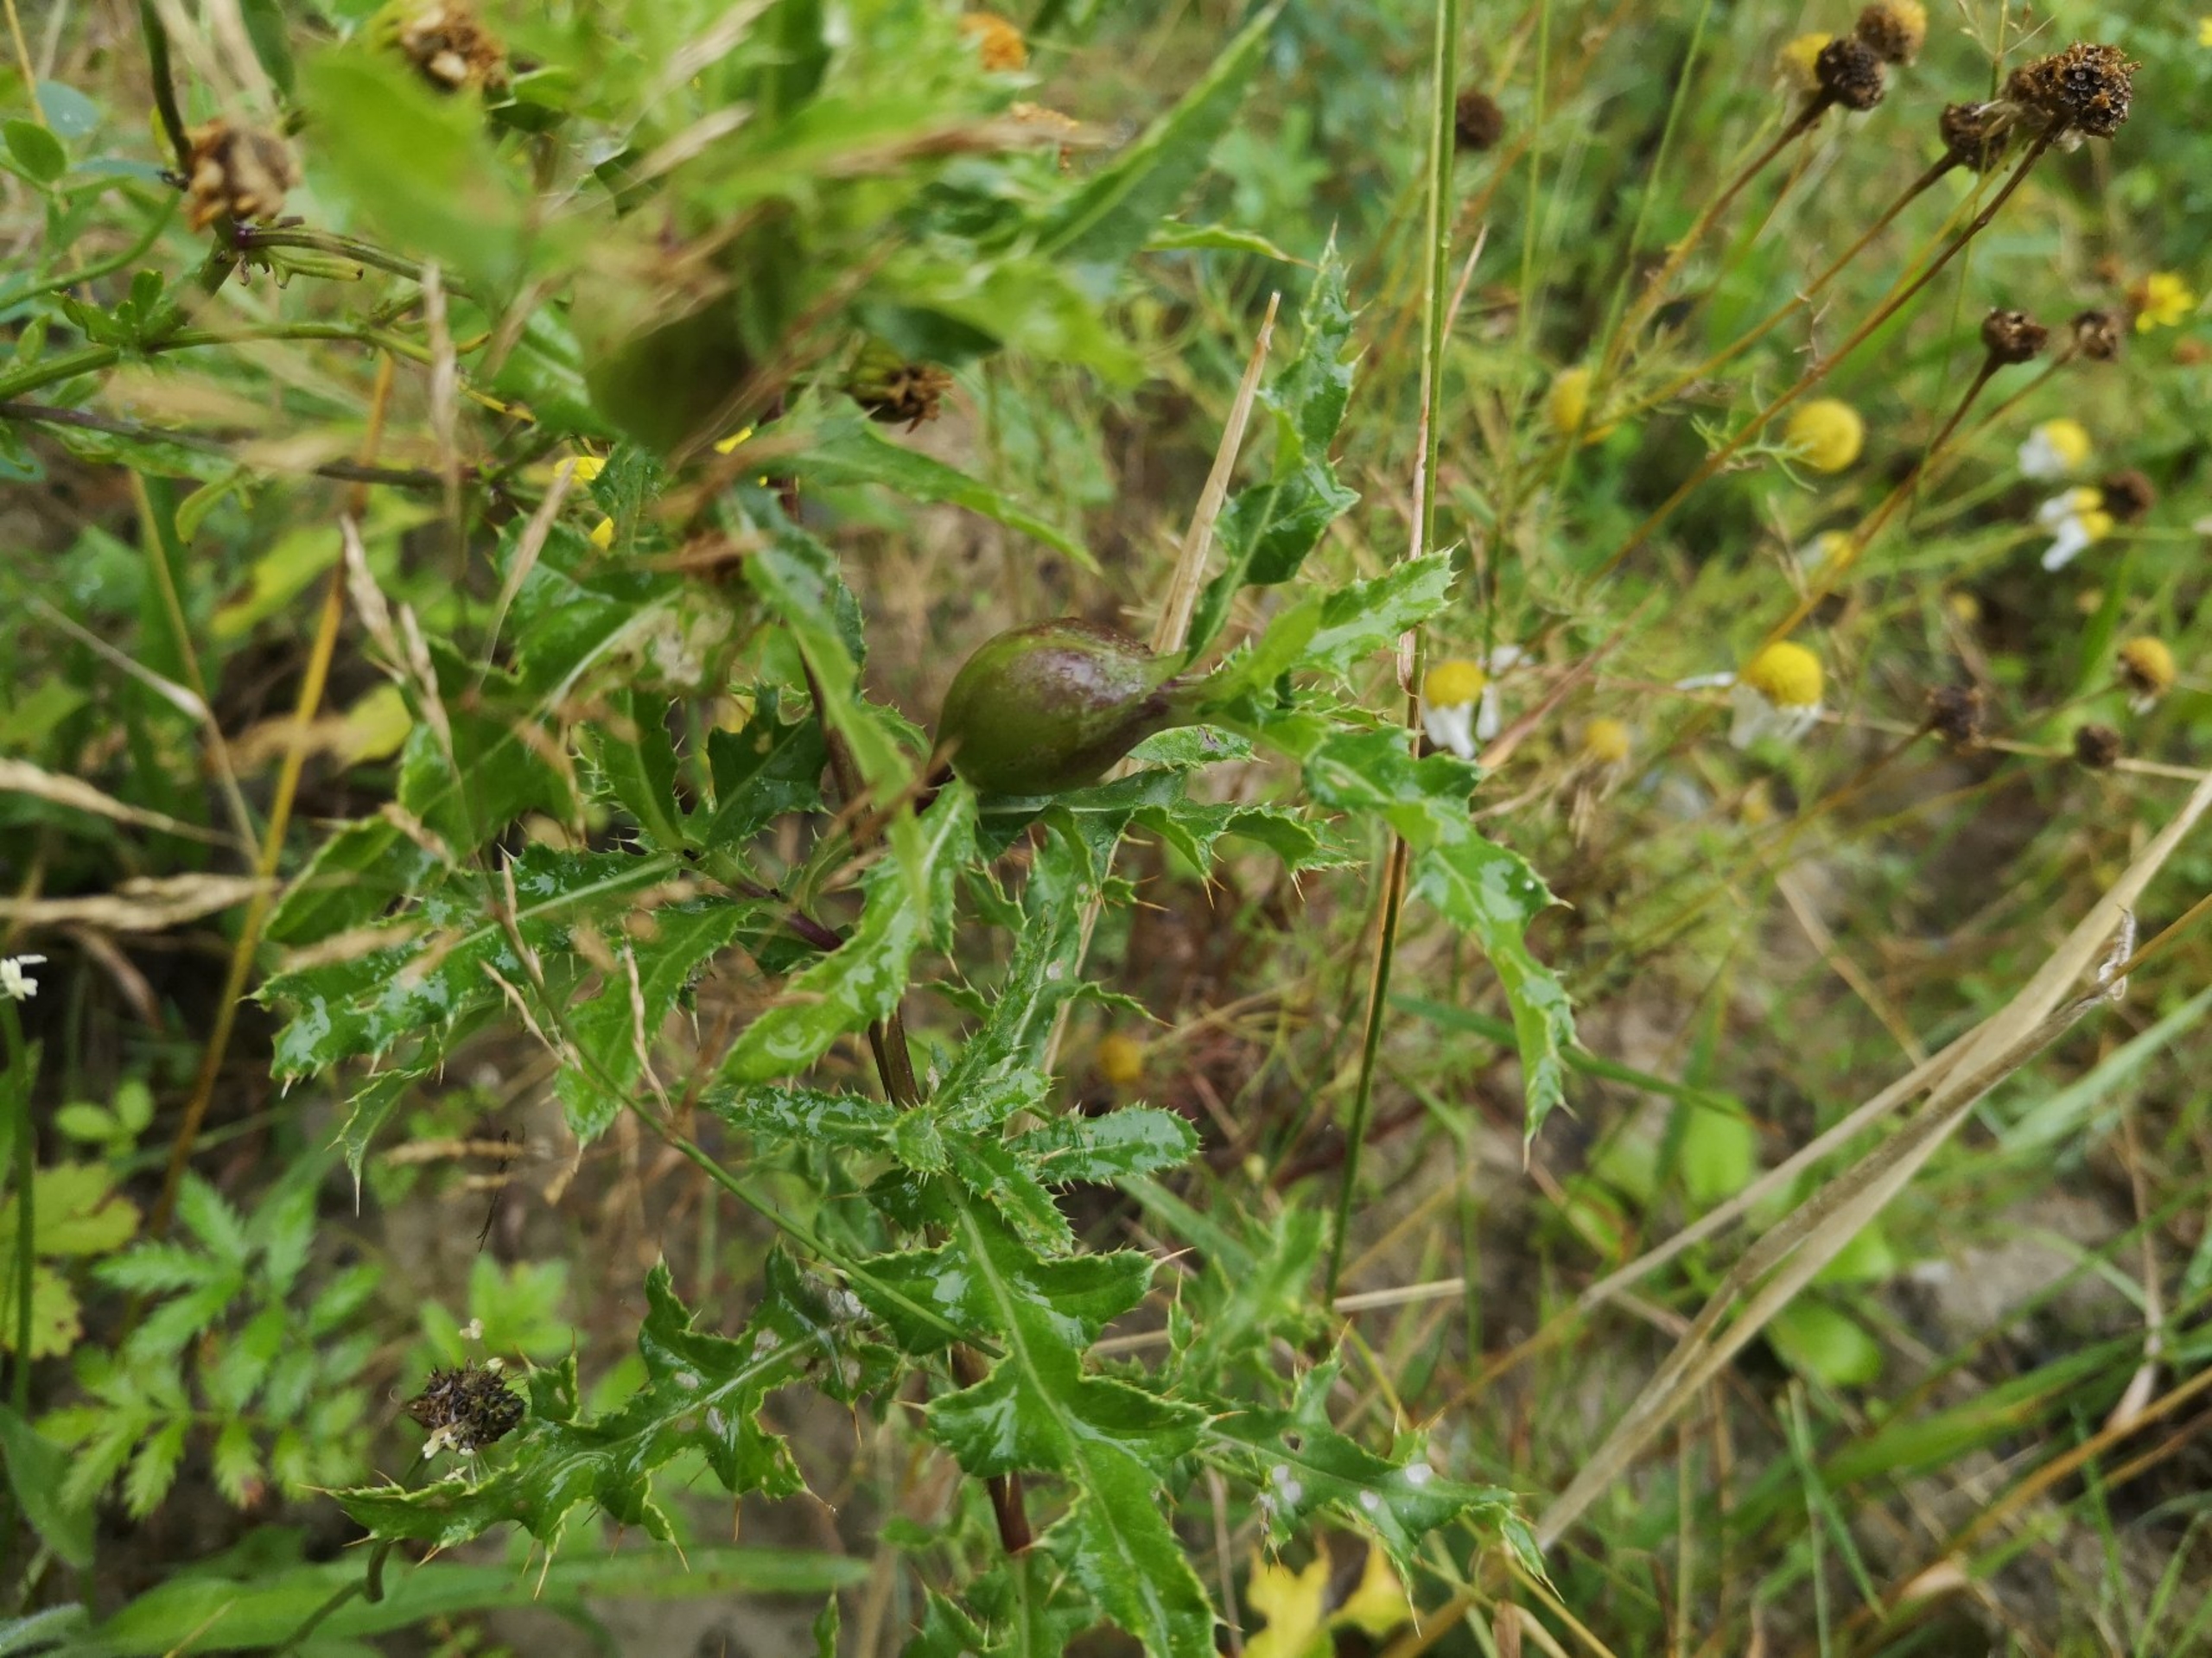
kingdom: Animalia
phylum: Arthropoda
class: Insecta
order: Diptera
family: Tephritidae
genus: Urophora
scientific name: Urophora cardui
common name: Tidselbåndflue
